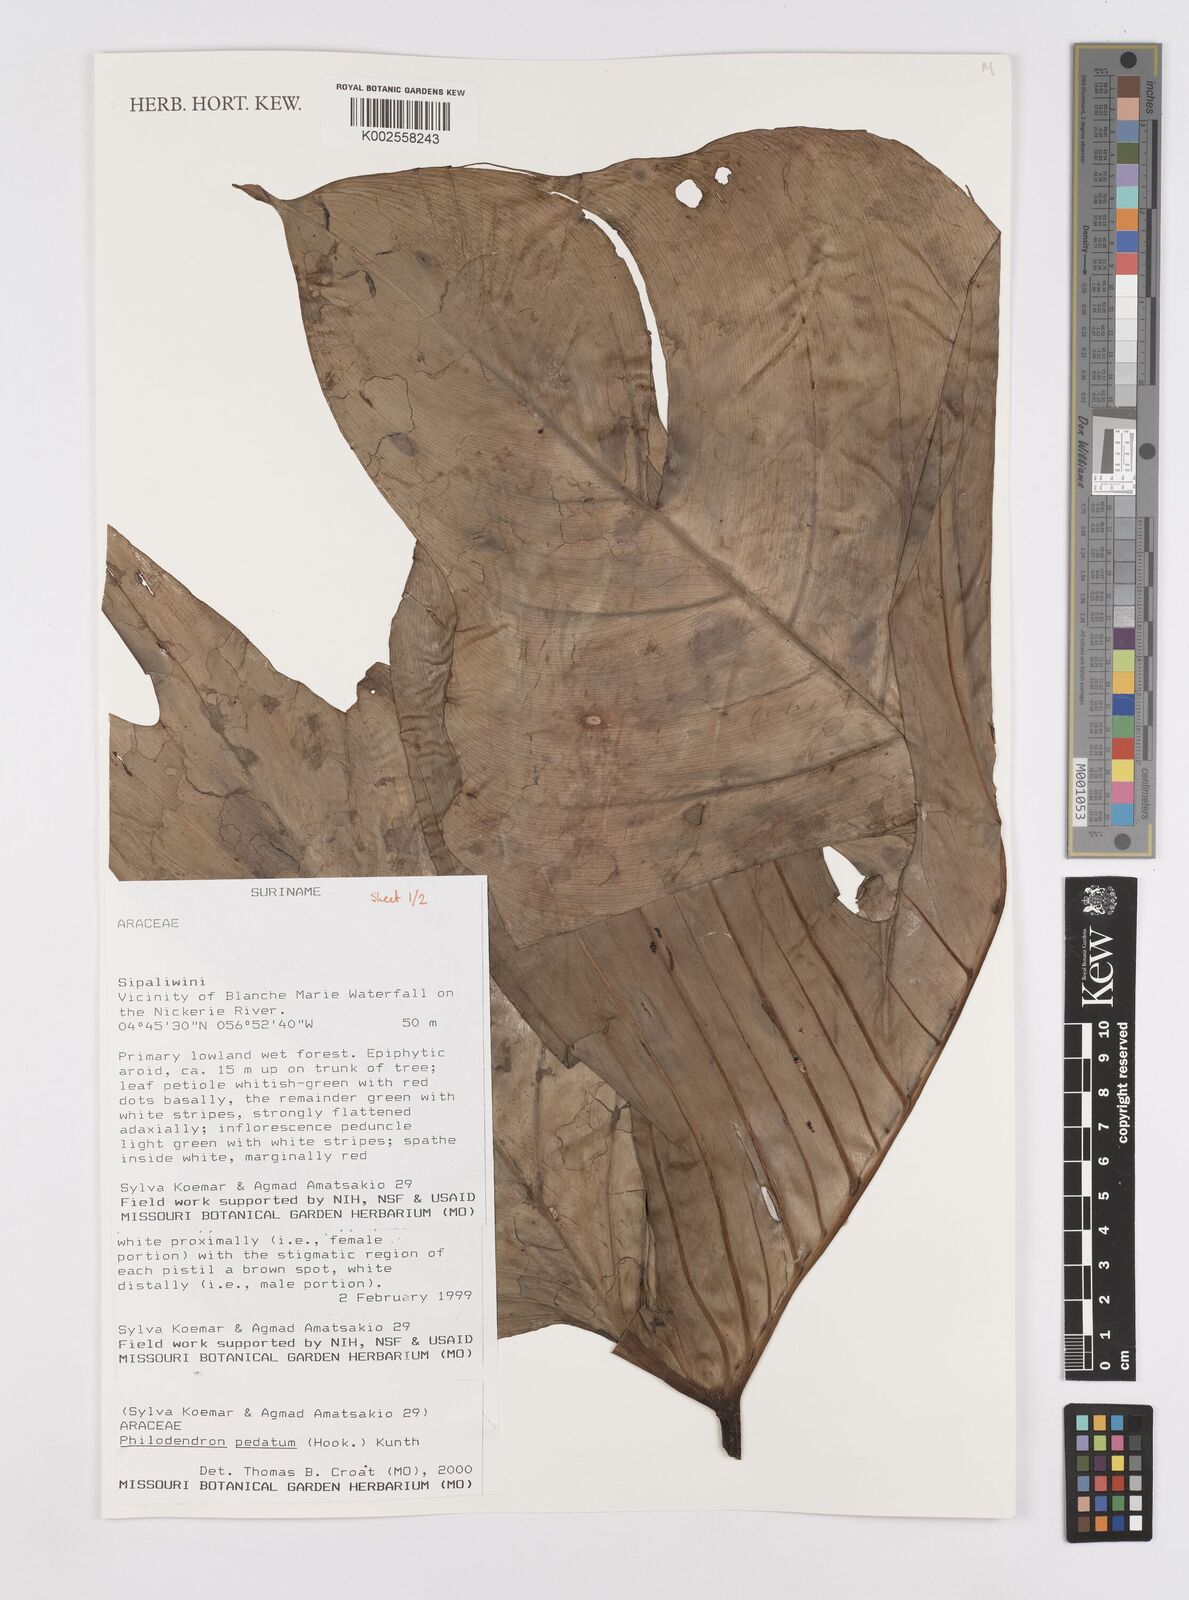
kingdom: Plantae
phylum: Tracheophyta
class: Liliopsida
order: Alismatales
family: Araceae
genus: Philodendron
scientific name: Philodendron pedatum
